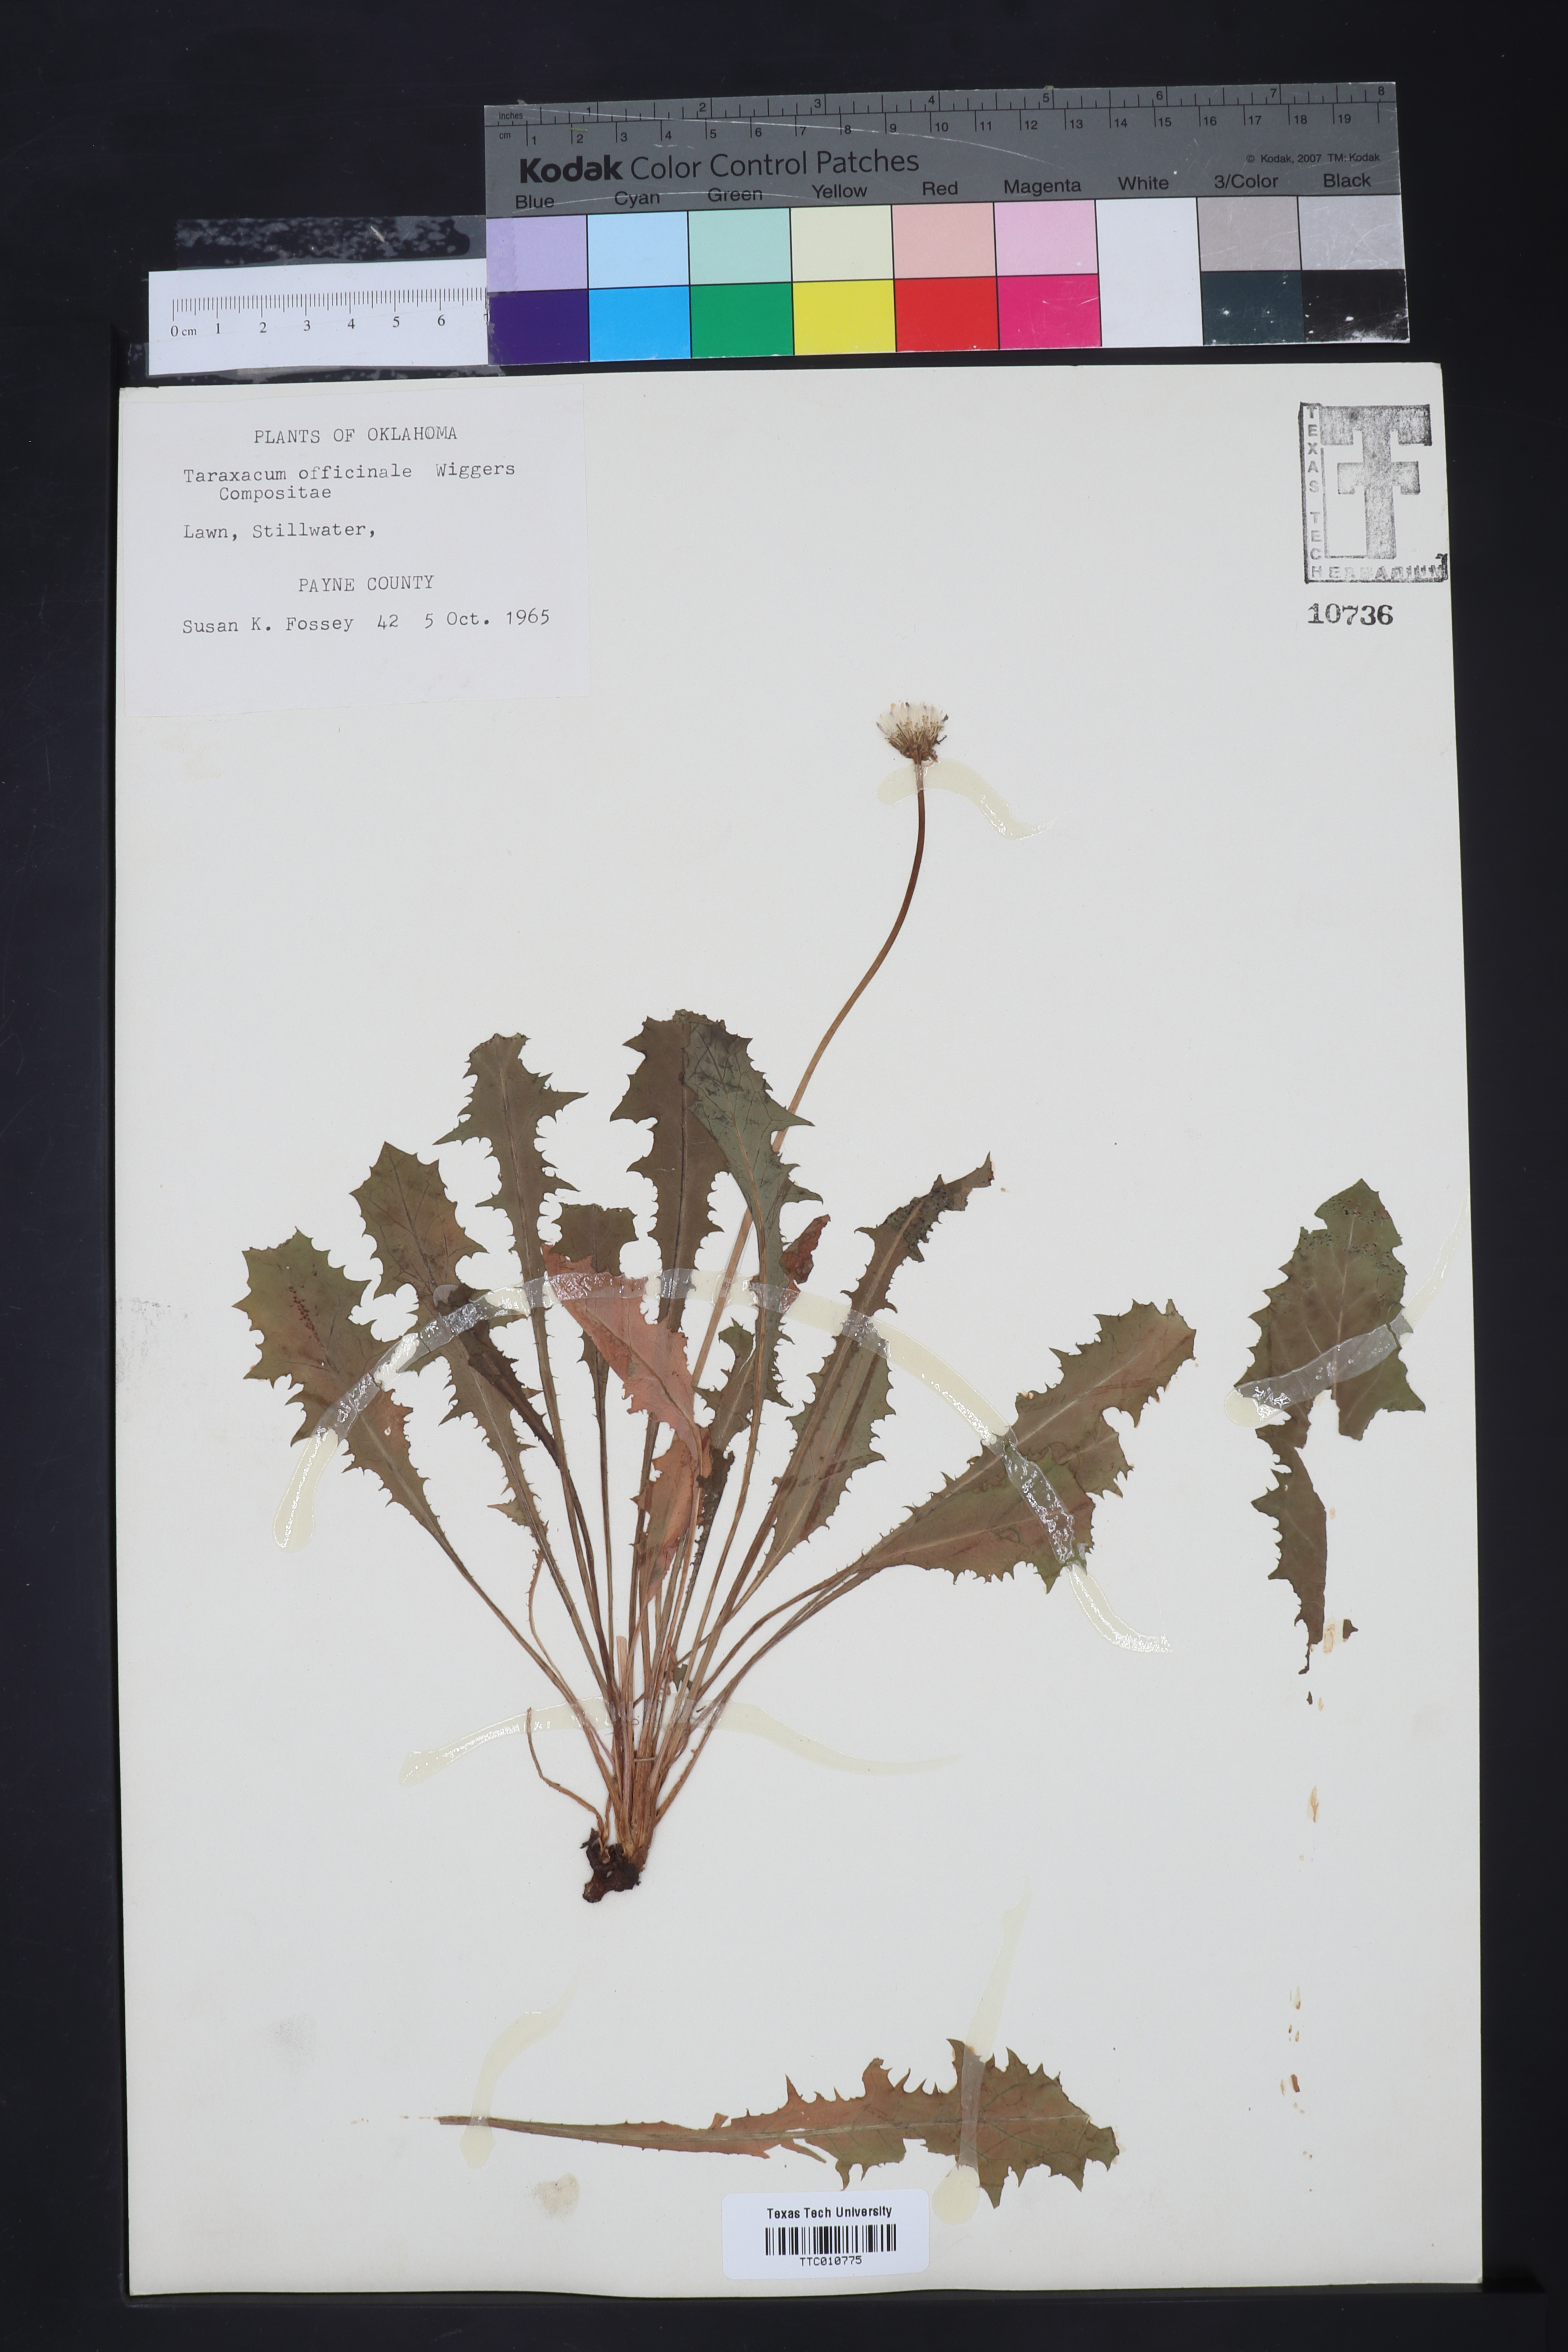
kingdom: Plantae
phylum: Tracheophyta
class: Magnoliopsida
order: Asterales
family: Asteraceae
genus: Taraxacum
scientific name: Taraxacum officinale
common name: Common dandelion
